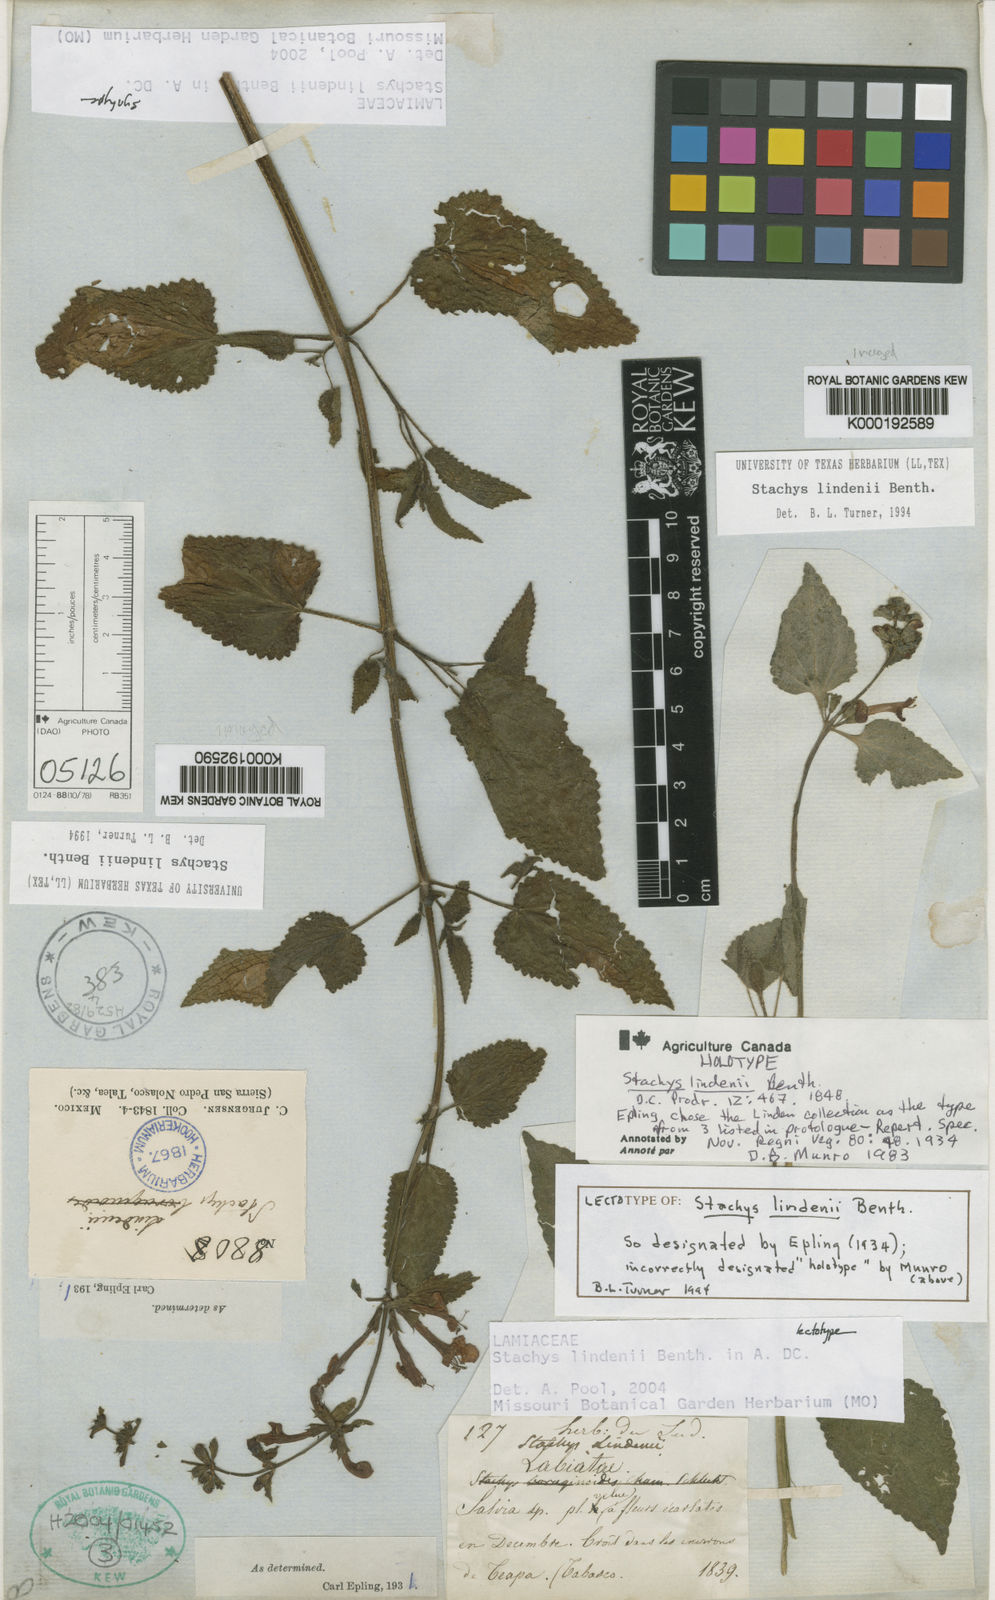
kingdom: Plantae
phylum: Tracheophyta
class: Magnoliopsida
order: Lamiales
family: Lamiaceae
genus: Stachys
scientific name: Stachys lindenii
